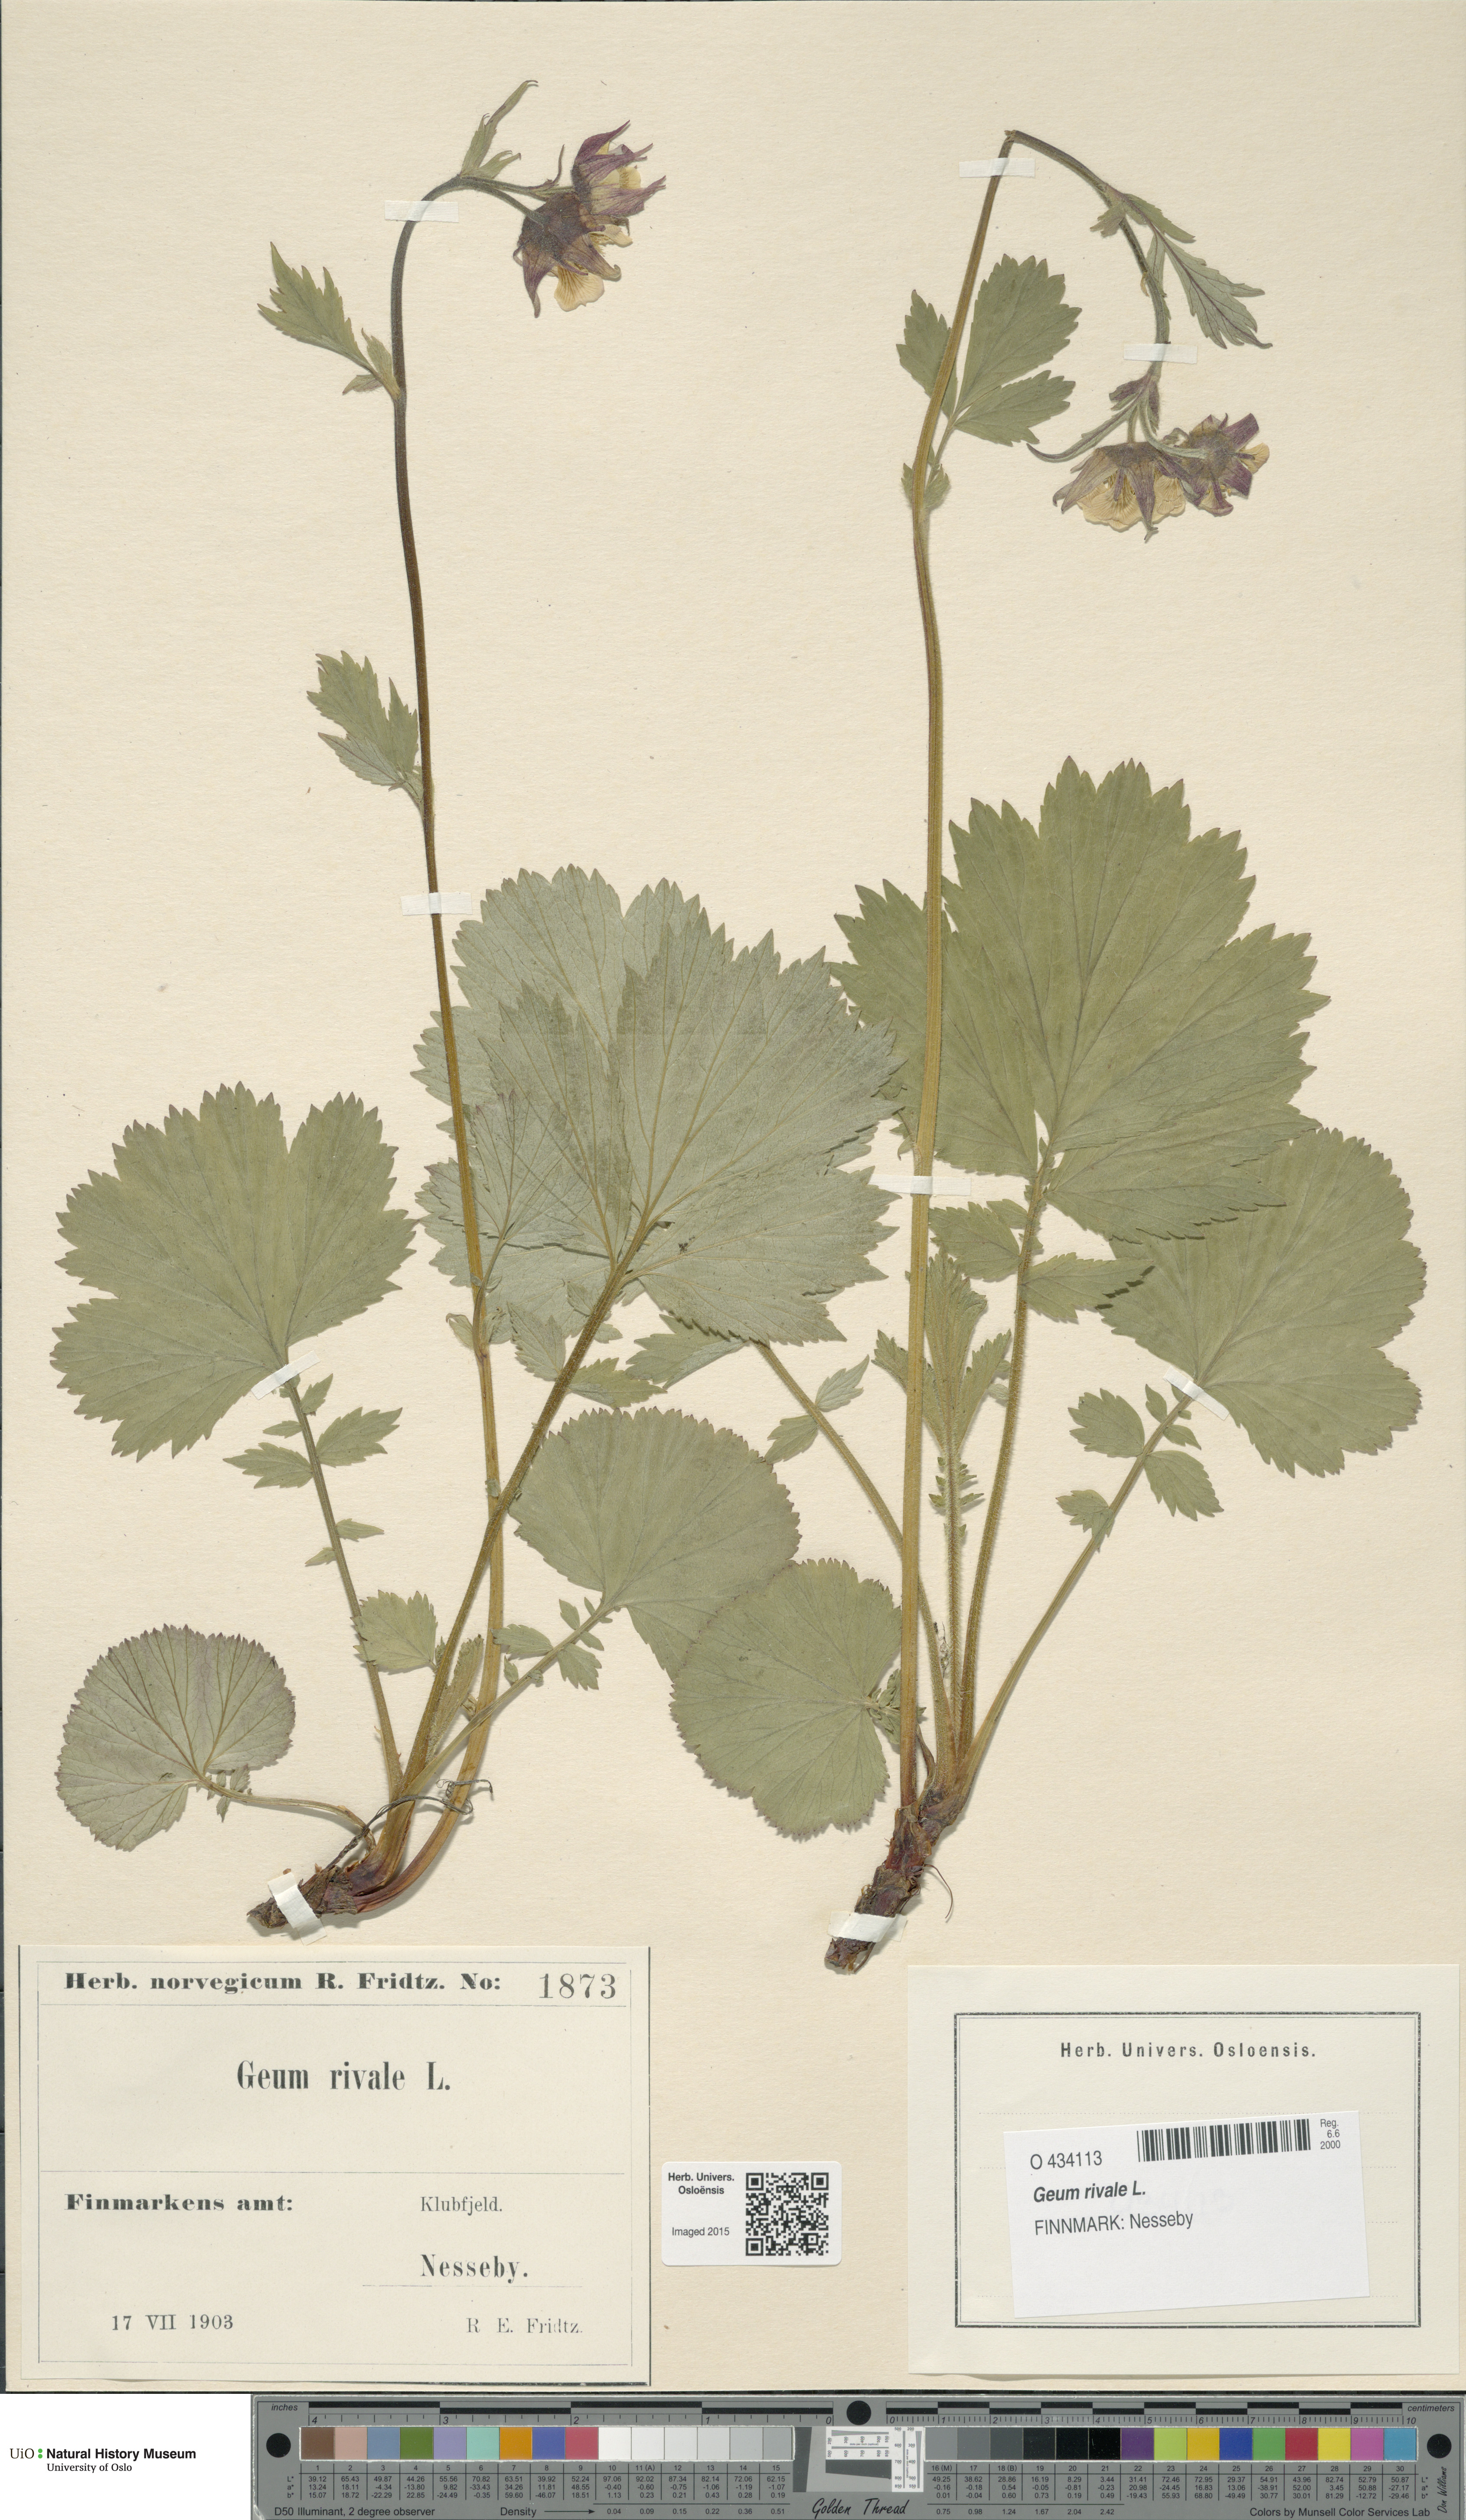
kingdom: Plantae
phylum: Tracheophyta
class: Magnoliopsida
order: Rosales
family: Rosaceae
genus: Geum
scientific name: Geum rivale
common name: Water avens
